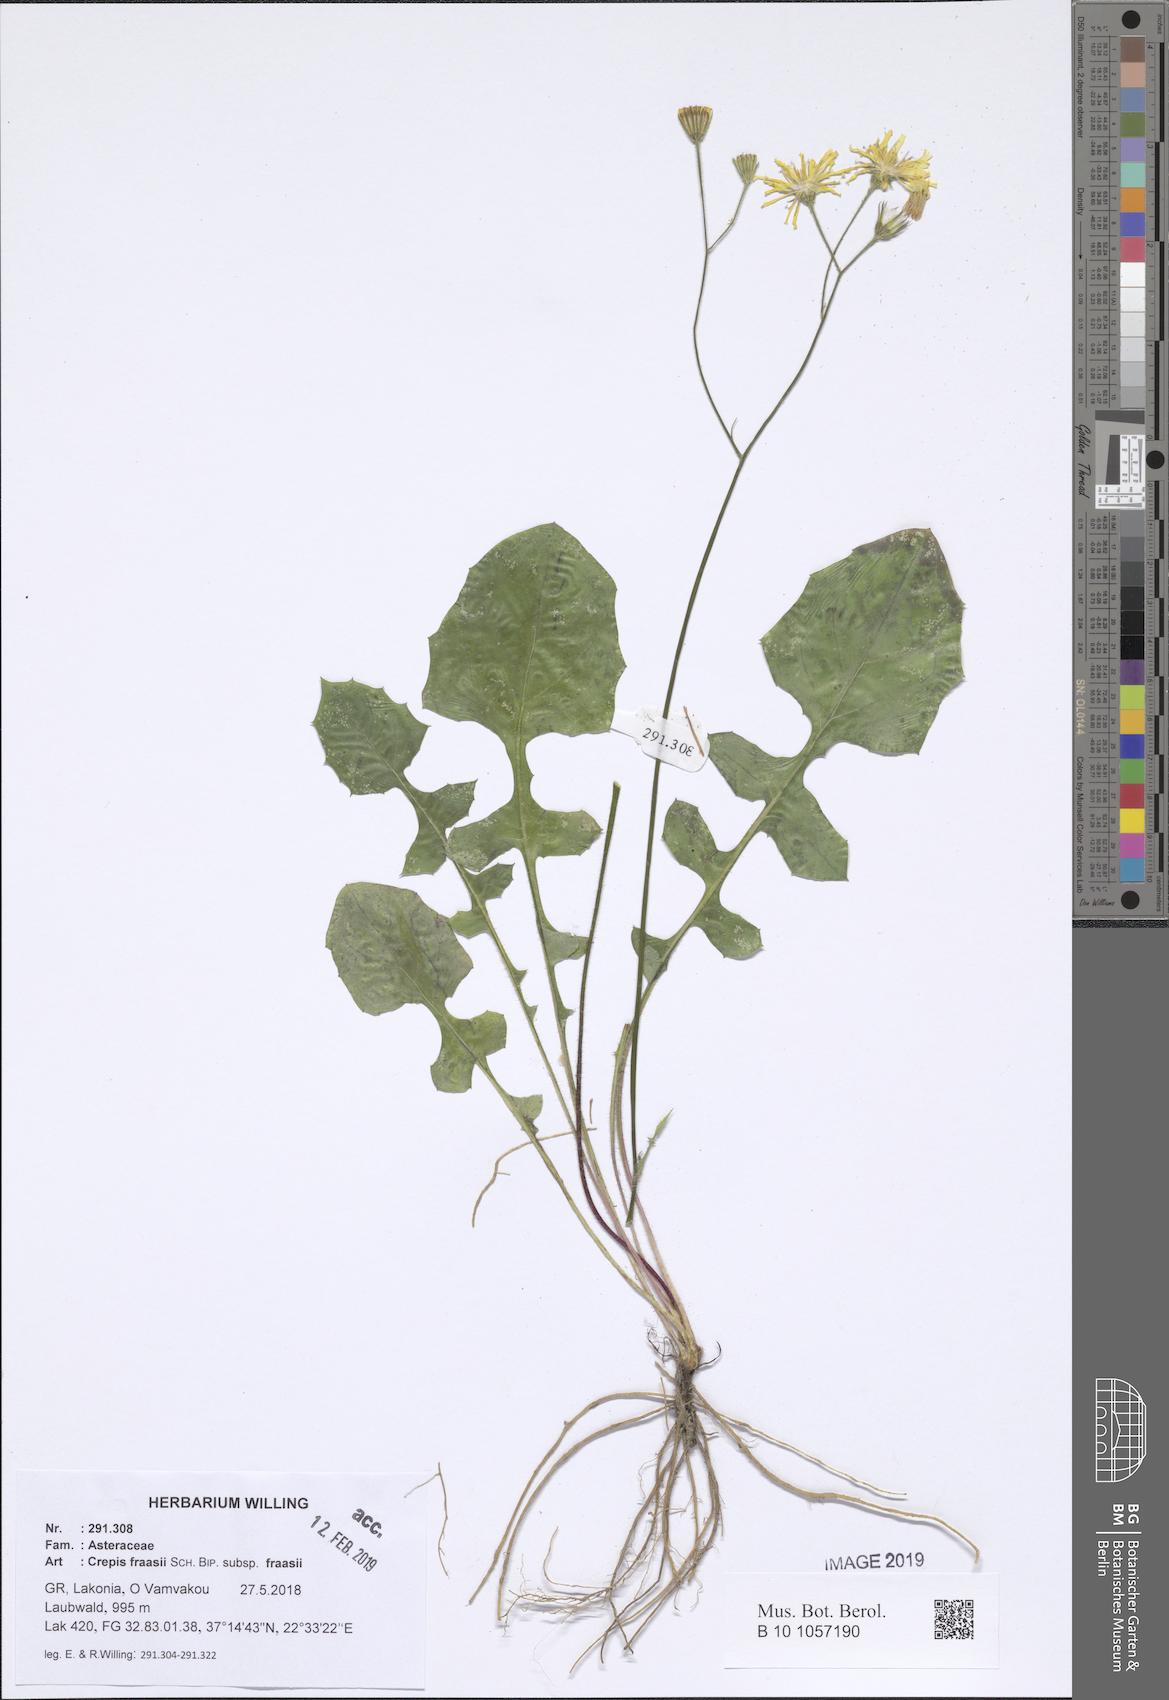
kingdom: Plantae
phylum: Tracheophyta
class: Magnoliopsida
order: Asterales
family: Asteraceae
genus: Crepis
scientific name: Crepis fraasii
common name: Hawk's-beard
